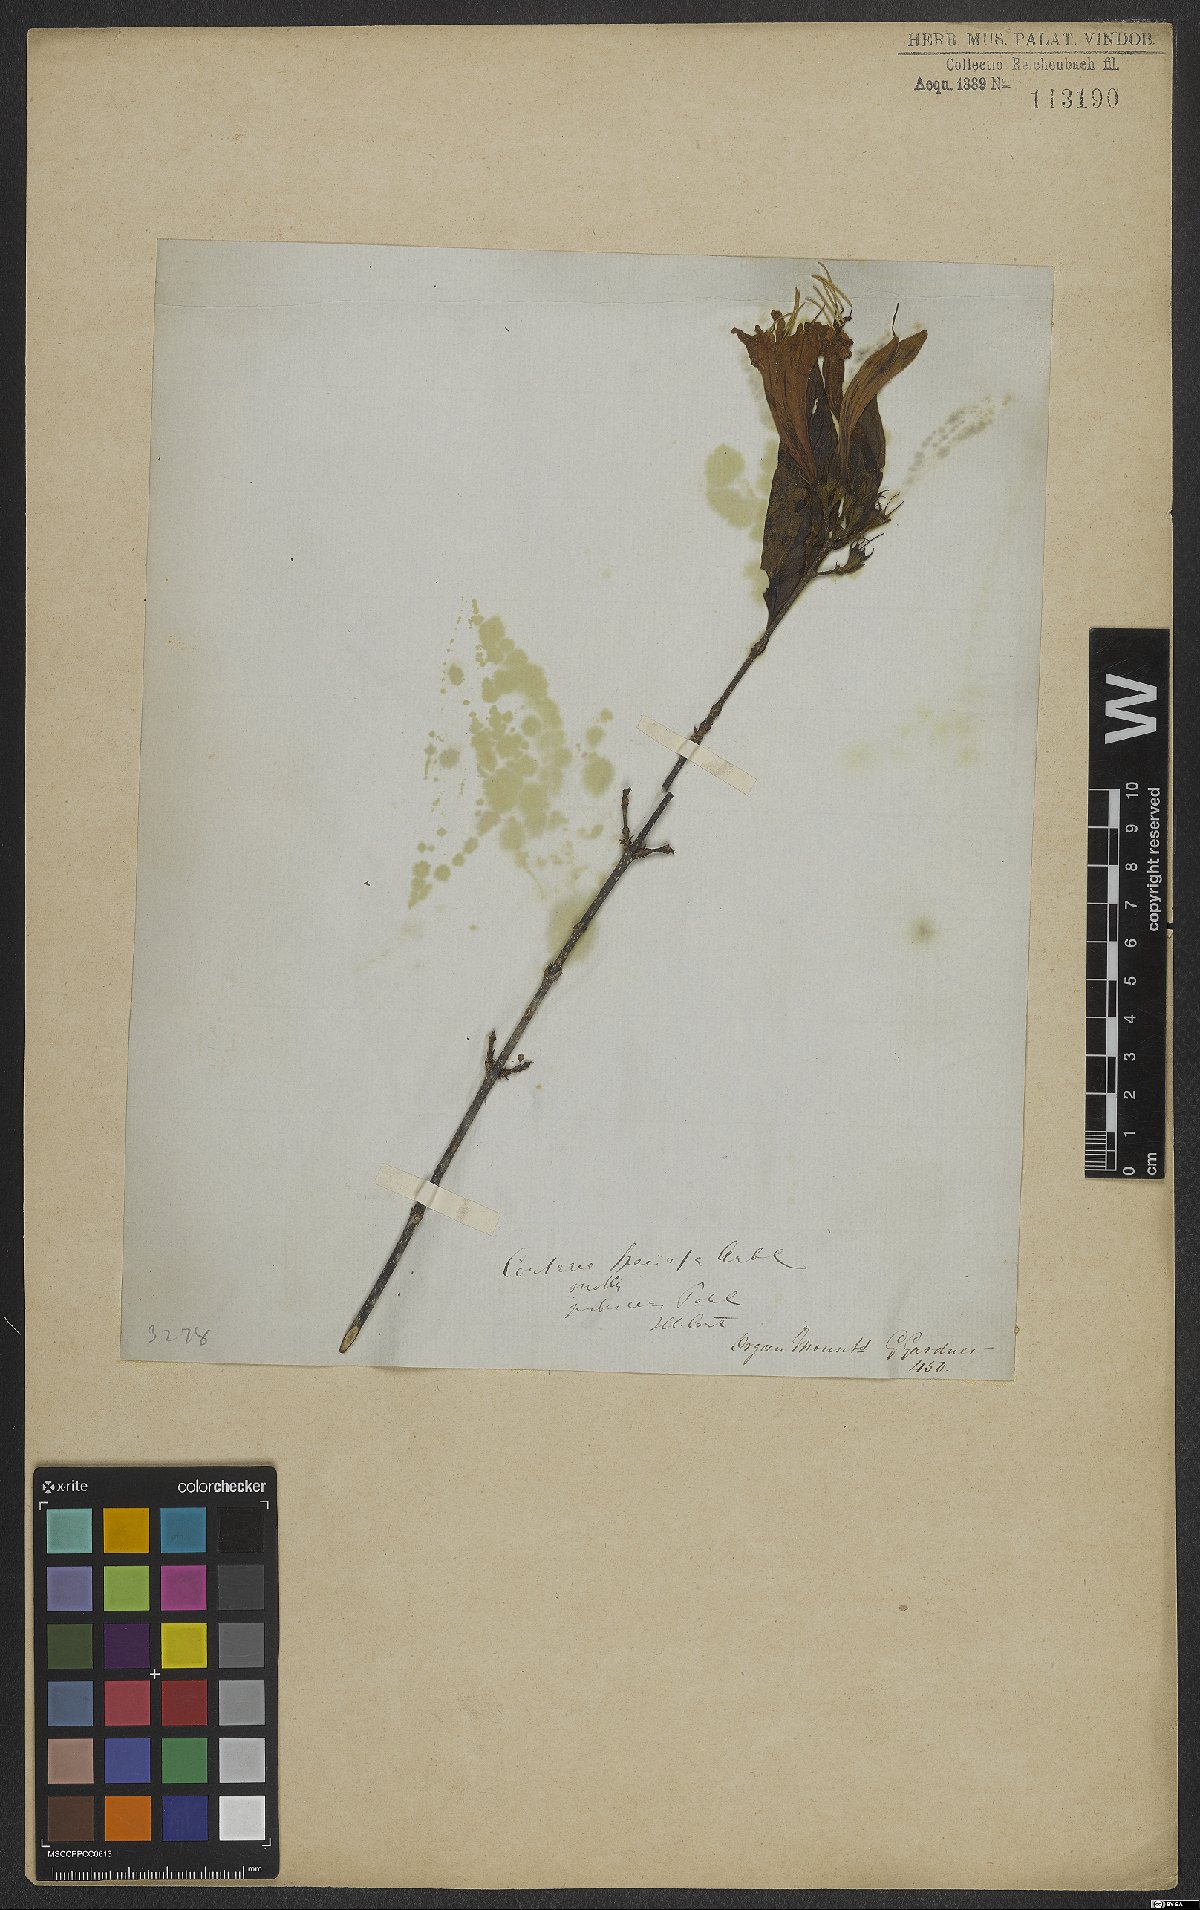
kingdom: Plantae
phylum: Tracheophyta
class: Magnoliopsida
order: Gentianales
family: Rubiaceae
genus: Coutarea
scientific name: Coutarea hexandra
